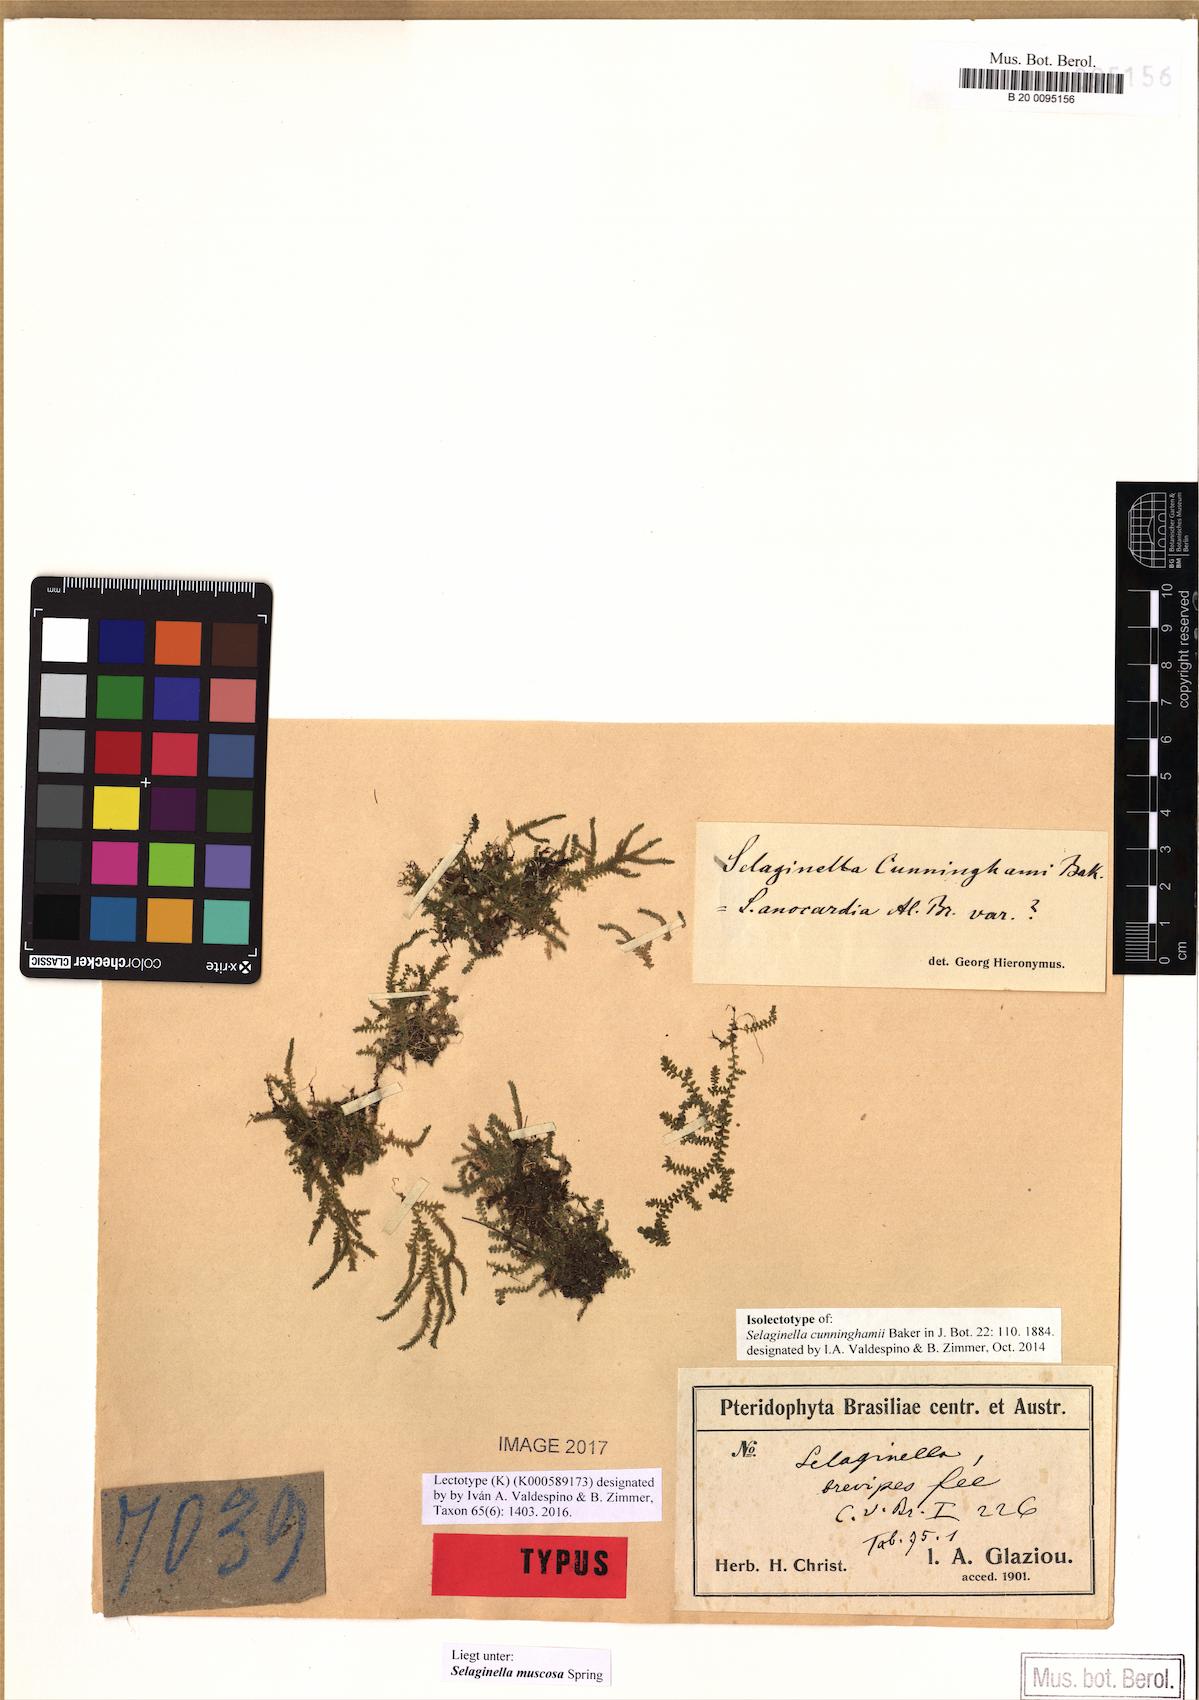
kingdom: Plantae
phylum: Tracheophyta
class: Lycopodiopsida
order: Selaginellales
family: Selaginellaceae
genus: Selaginella
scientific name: Selaginella muscosa
